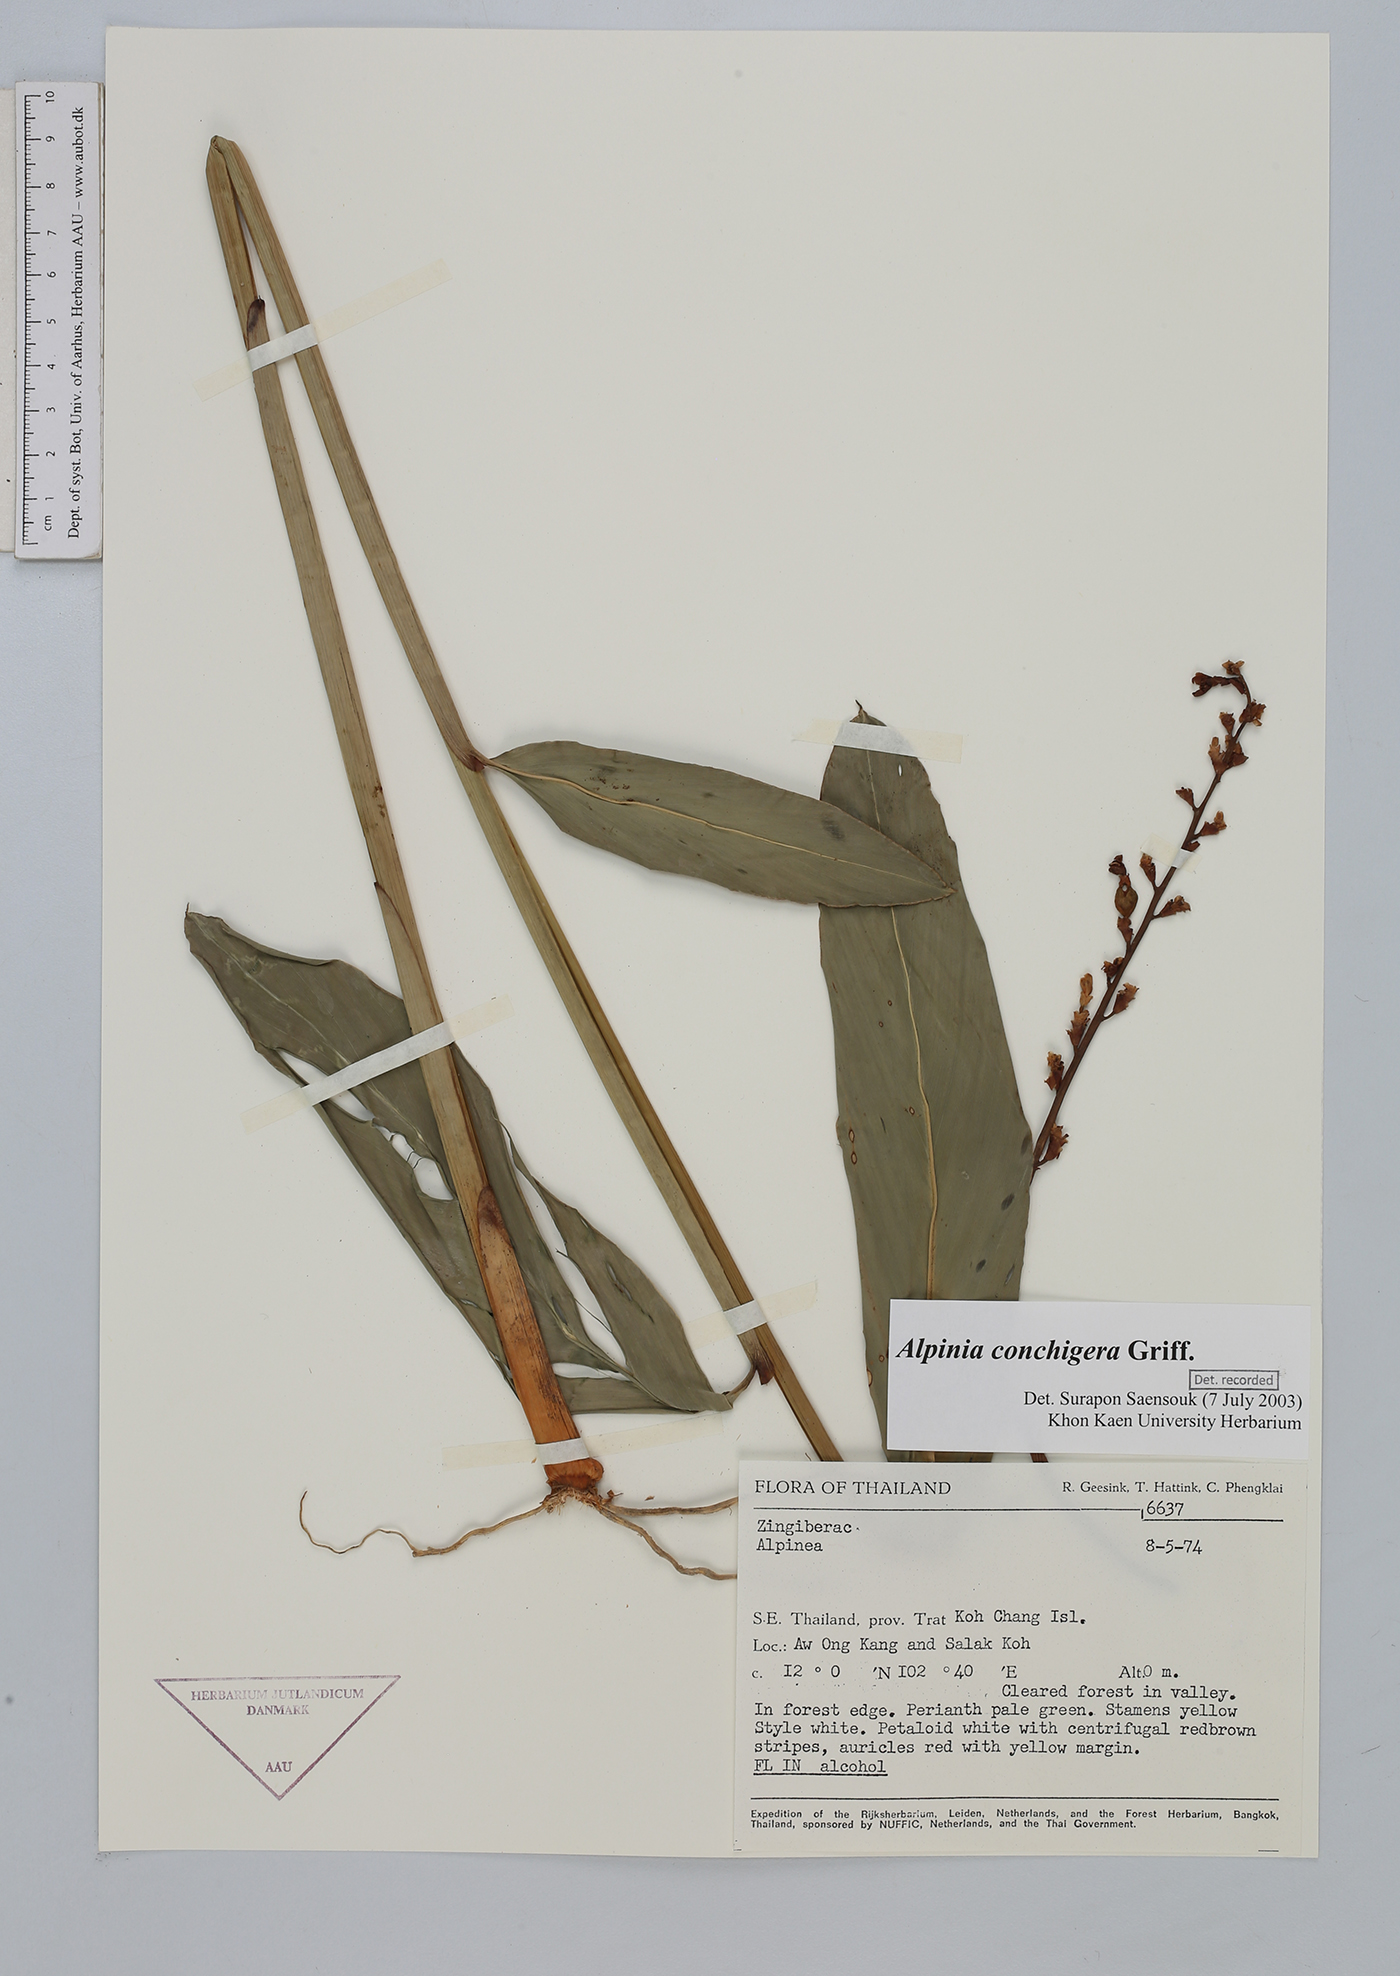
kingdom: Plantae
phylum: Tracheophyta
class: Liliopsida
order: Zingiberales
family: Zingiberaceae
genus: Alpinia
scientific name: Alpinia conchigera
